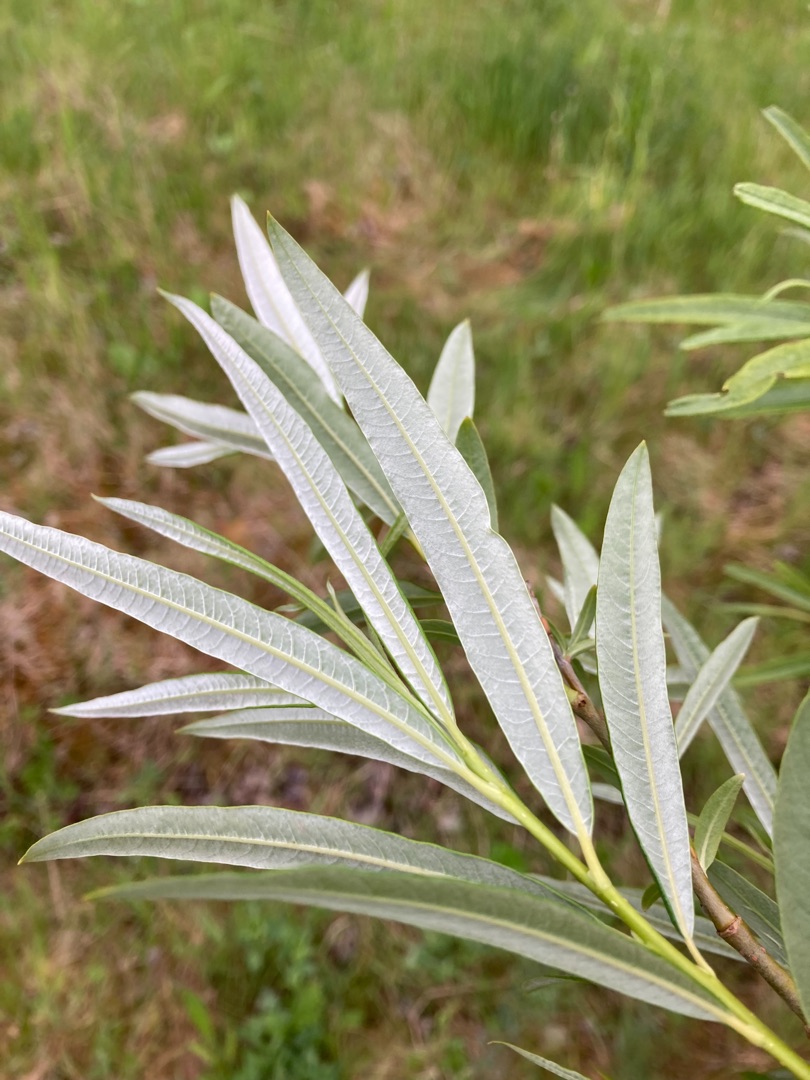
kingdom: Plantae
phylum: Tracheophyta
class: Magnoliopsida
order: Malpighiales
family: Salicaceae
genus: Salix
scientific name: Salix viminalis
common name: Bånd-pil
